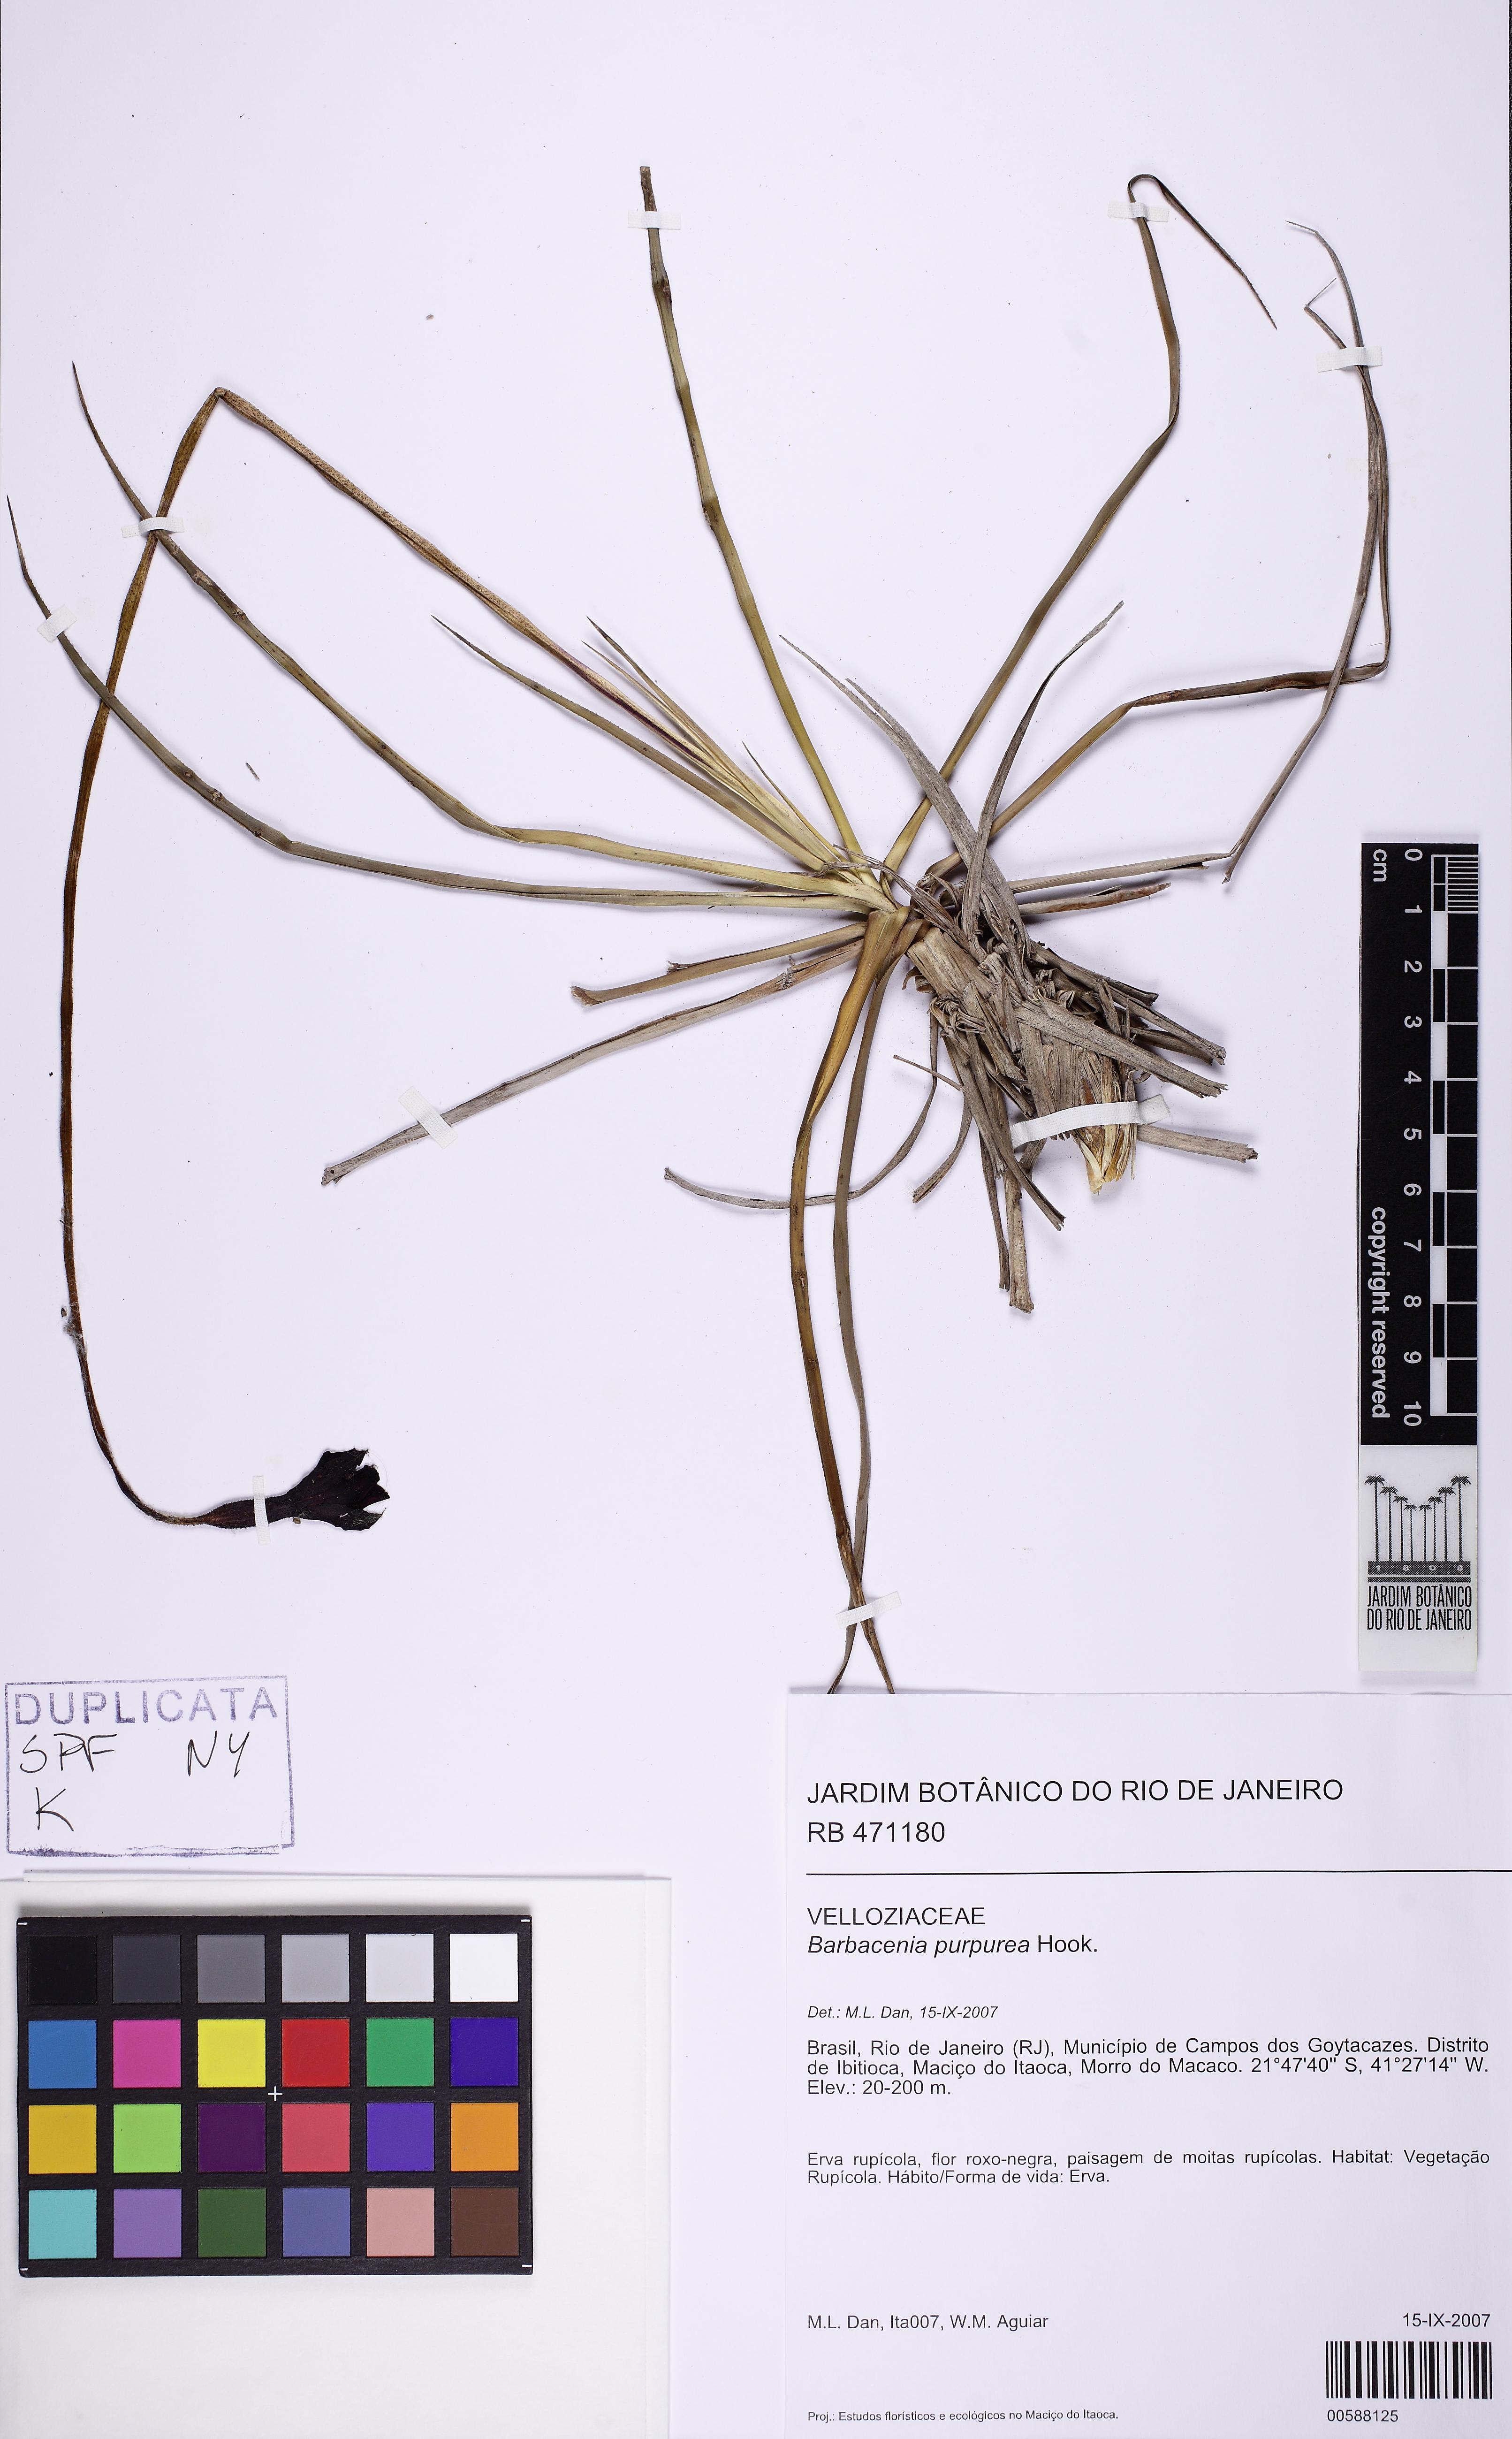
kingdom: Plantae
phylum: Tracheophyta
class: Liliopsida
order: Pandanales
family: Velloziaceae
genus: Barbacenia
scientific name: Barbacenia purpurea
